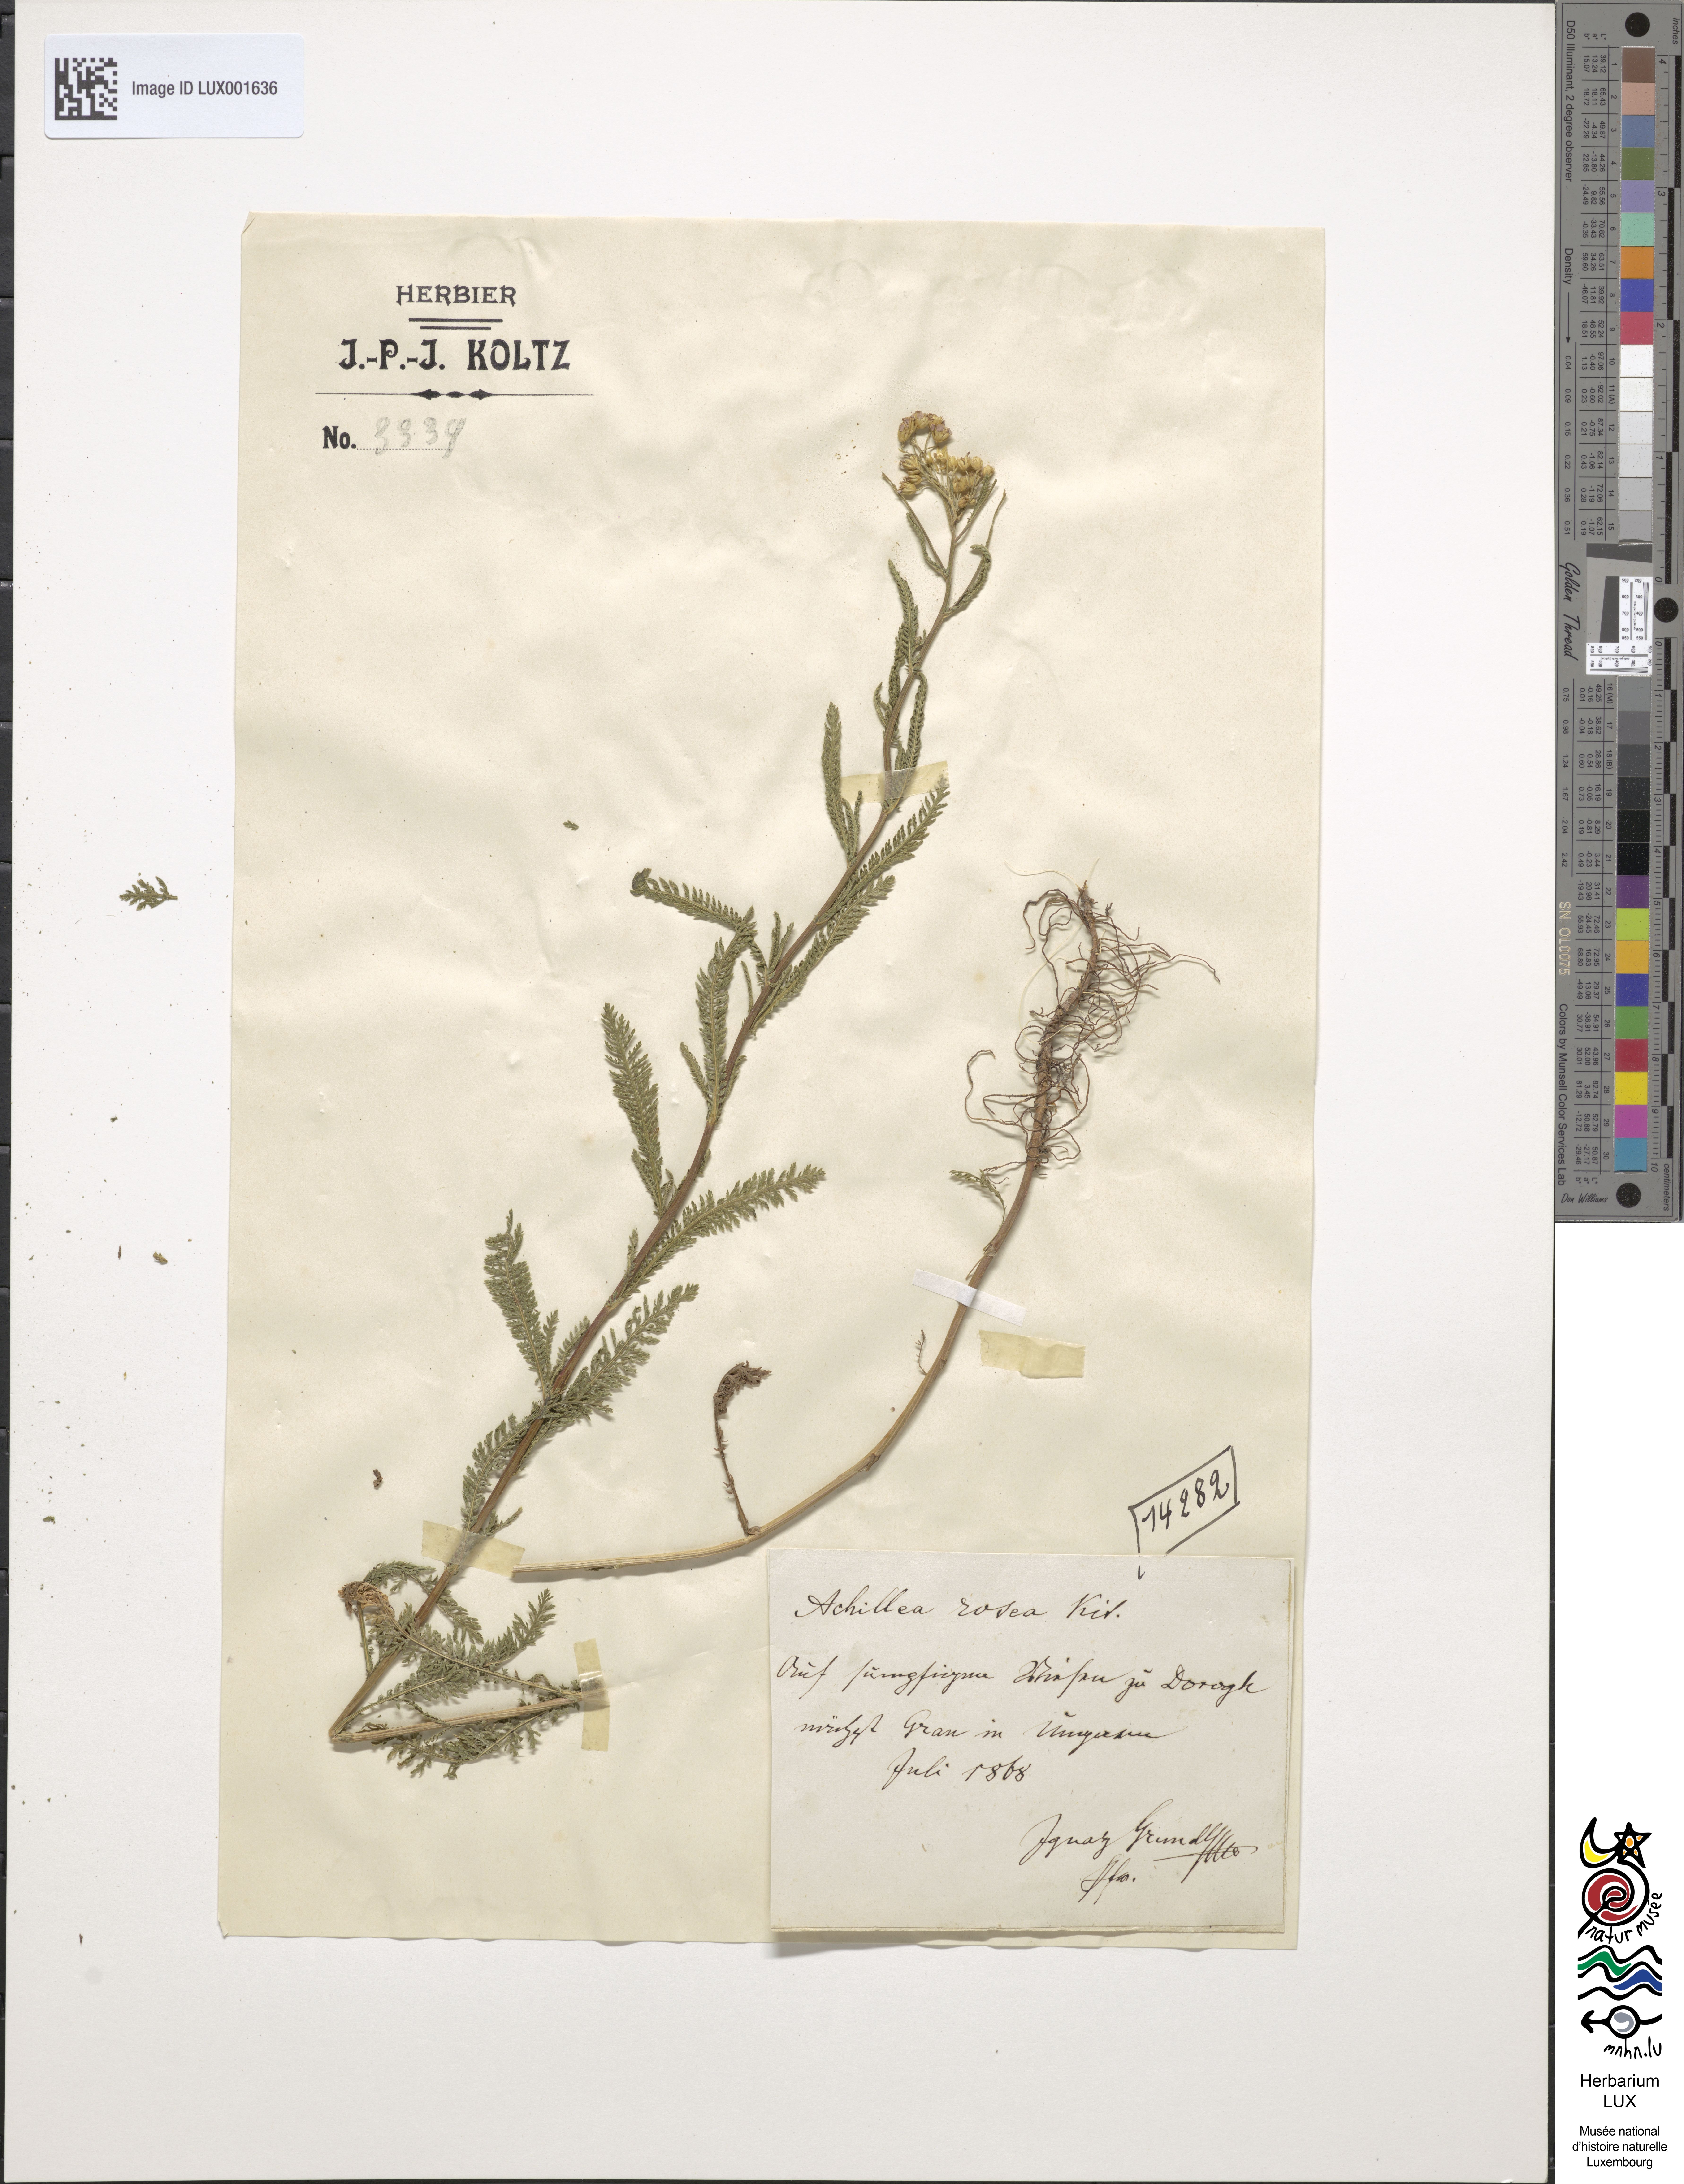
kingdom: Plantae
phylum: Tracheophyta
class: Magnoliopsida
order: Asterales
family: Asteraceae
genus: Achillea
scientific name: Achillea aspleniifolia
